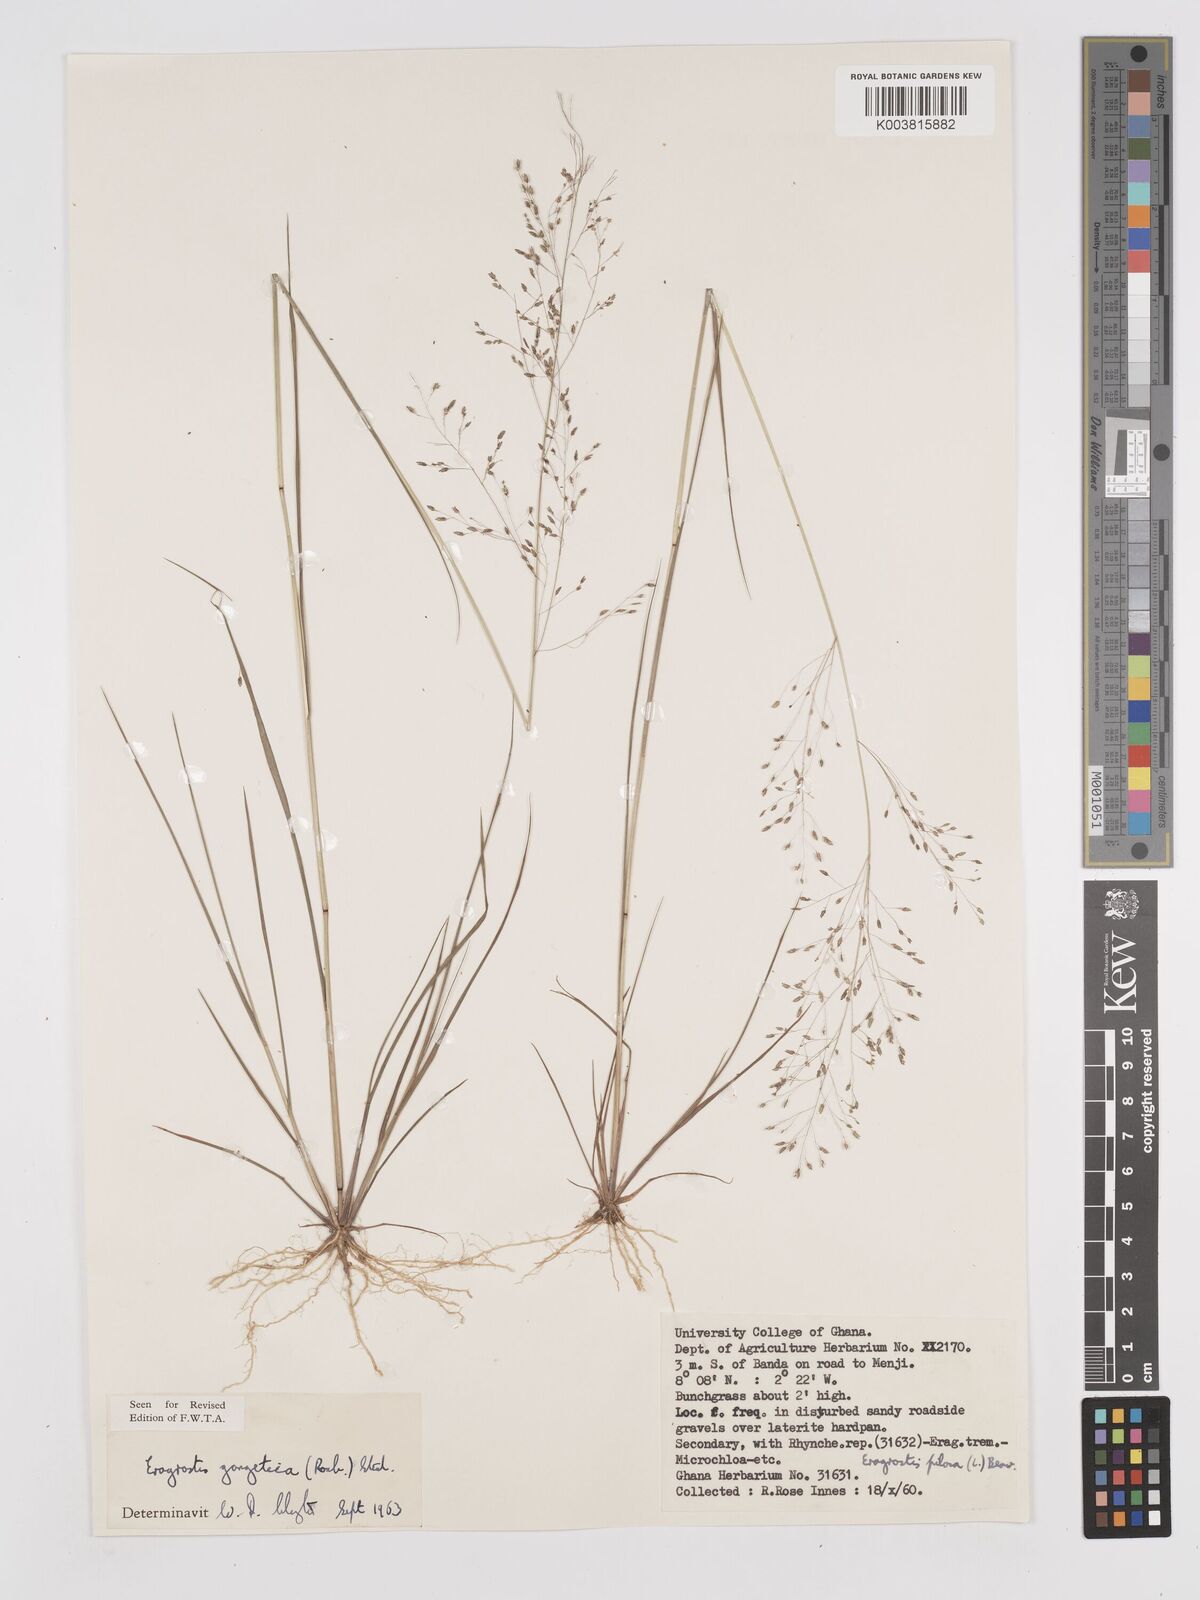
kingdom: Plantae
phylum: Tracheophyta
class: Liliopsida
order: Poales
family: Poaceae
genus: Eragrostis
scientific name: Eragrostis gangetica
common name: Slimflower lovegrass
